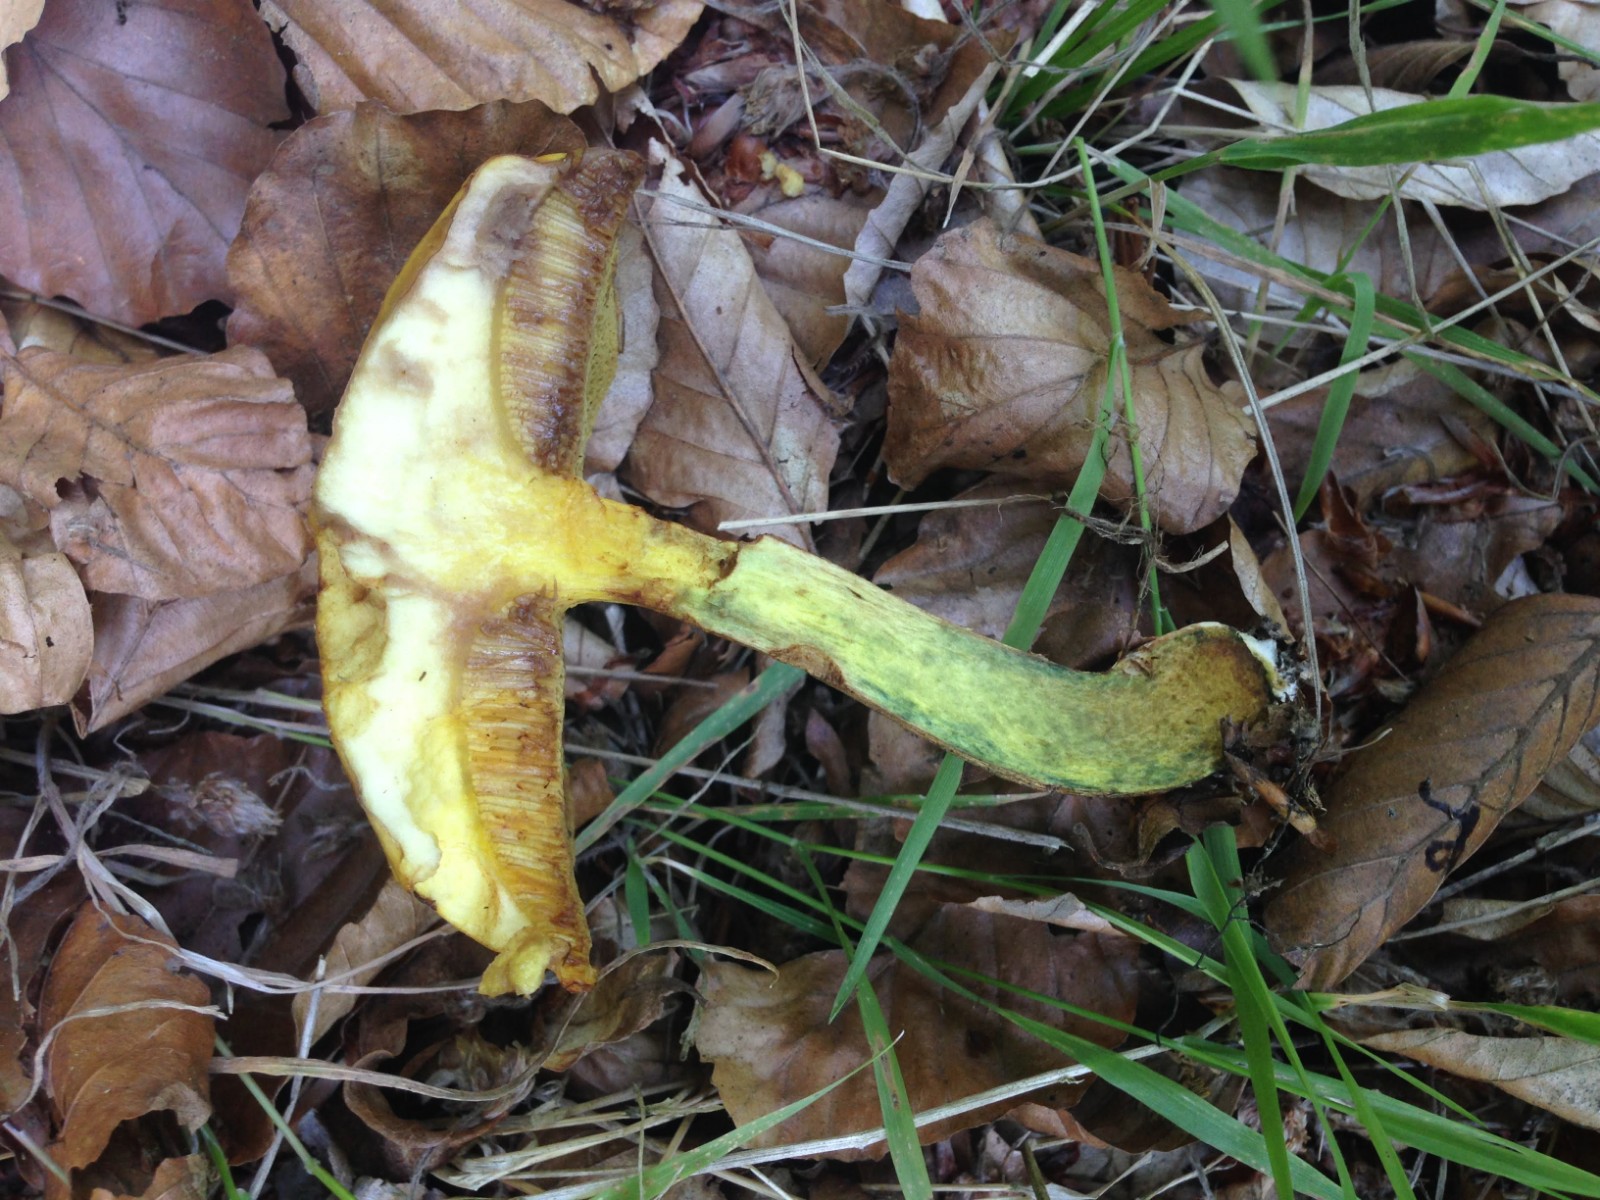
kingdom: Fungi
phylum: Basidiomycota
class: Agaricomycetes
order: Boletales
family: Suillaceae
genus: Suillus
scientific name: Suillus grevillei
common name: lærke-slimrørhat
